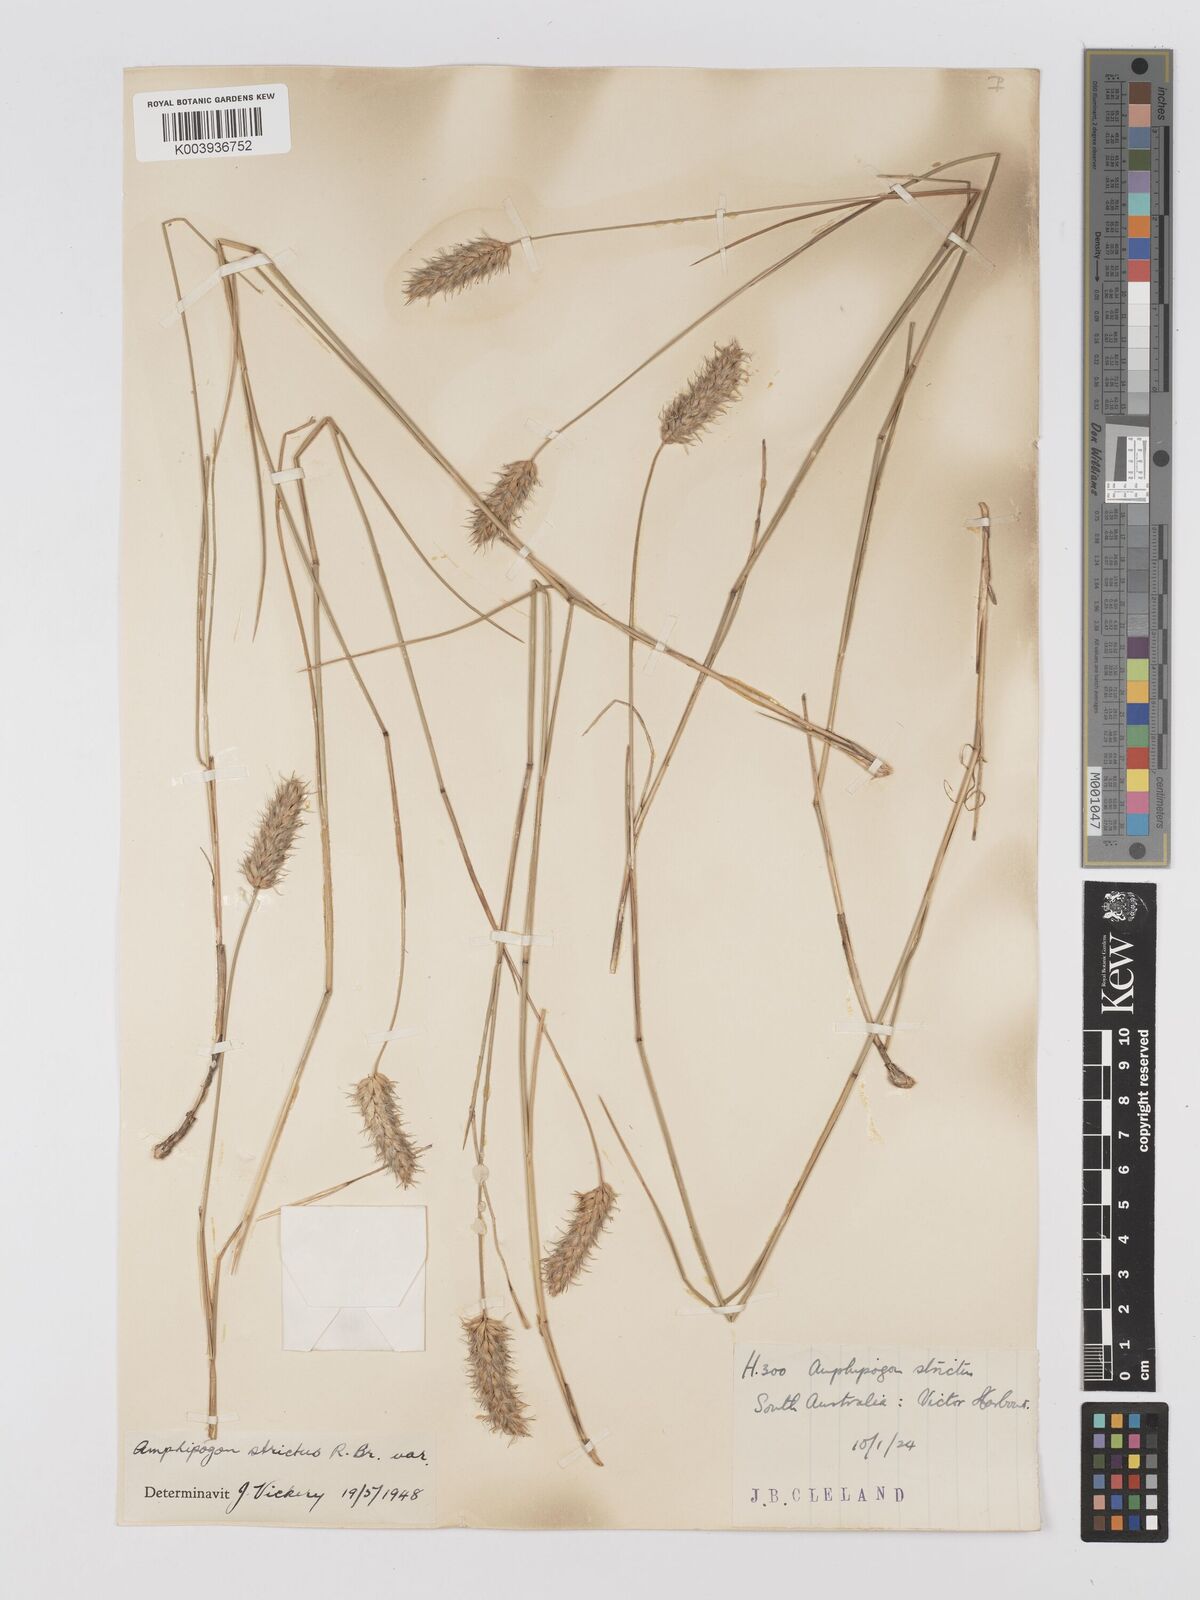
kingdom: Plantae
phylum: Tracheophyta
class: Liliopsida
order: Poales
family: Poaceae
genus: Amphipogon
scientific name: Amphipogon strictus
